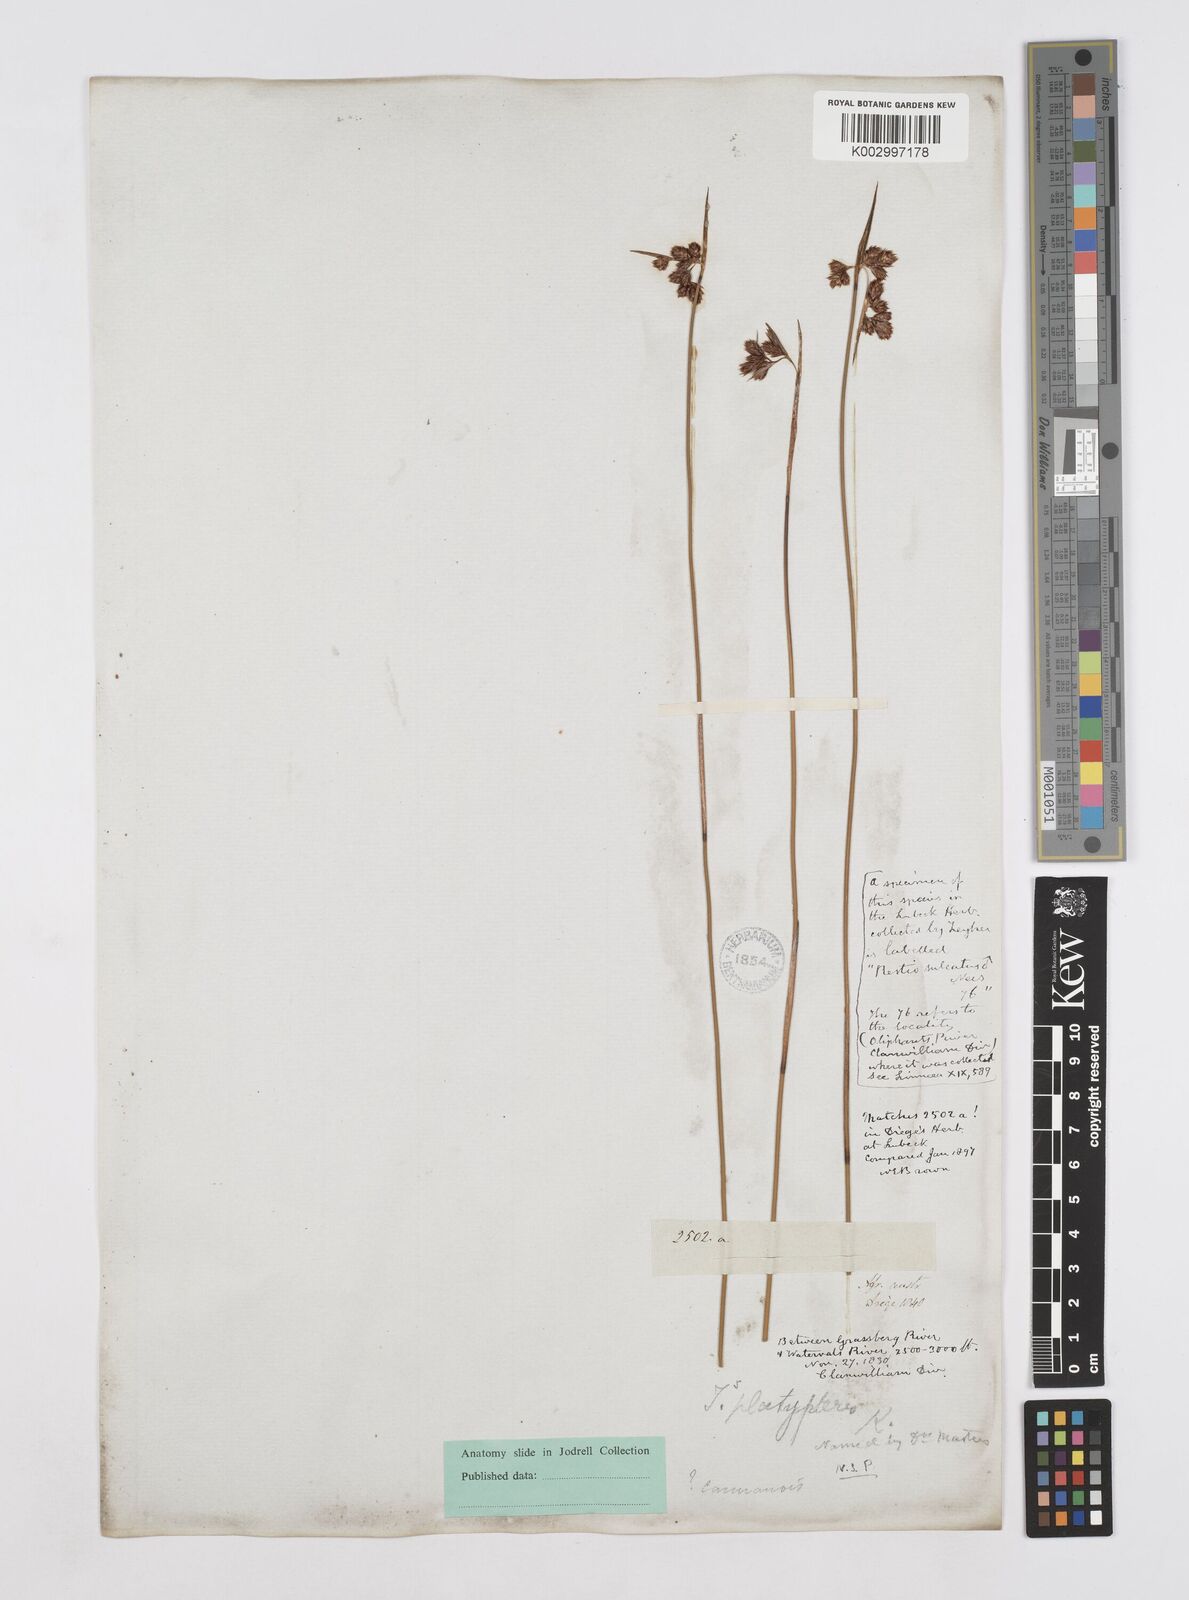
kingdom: Plantae
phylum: Tracheophyta
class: Liliopsida
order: Poales
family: Restionaceae
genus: Thamnochortus
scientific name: Thamnochortus platypteris
